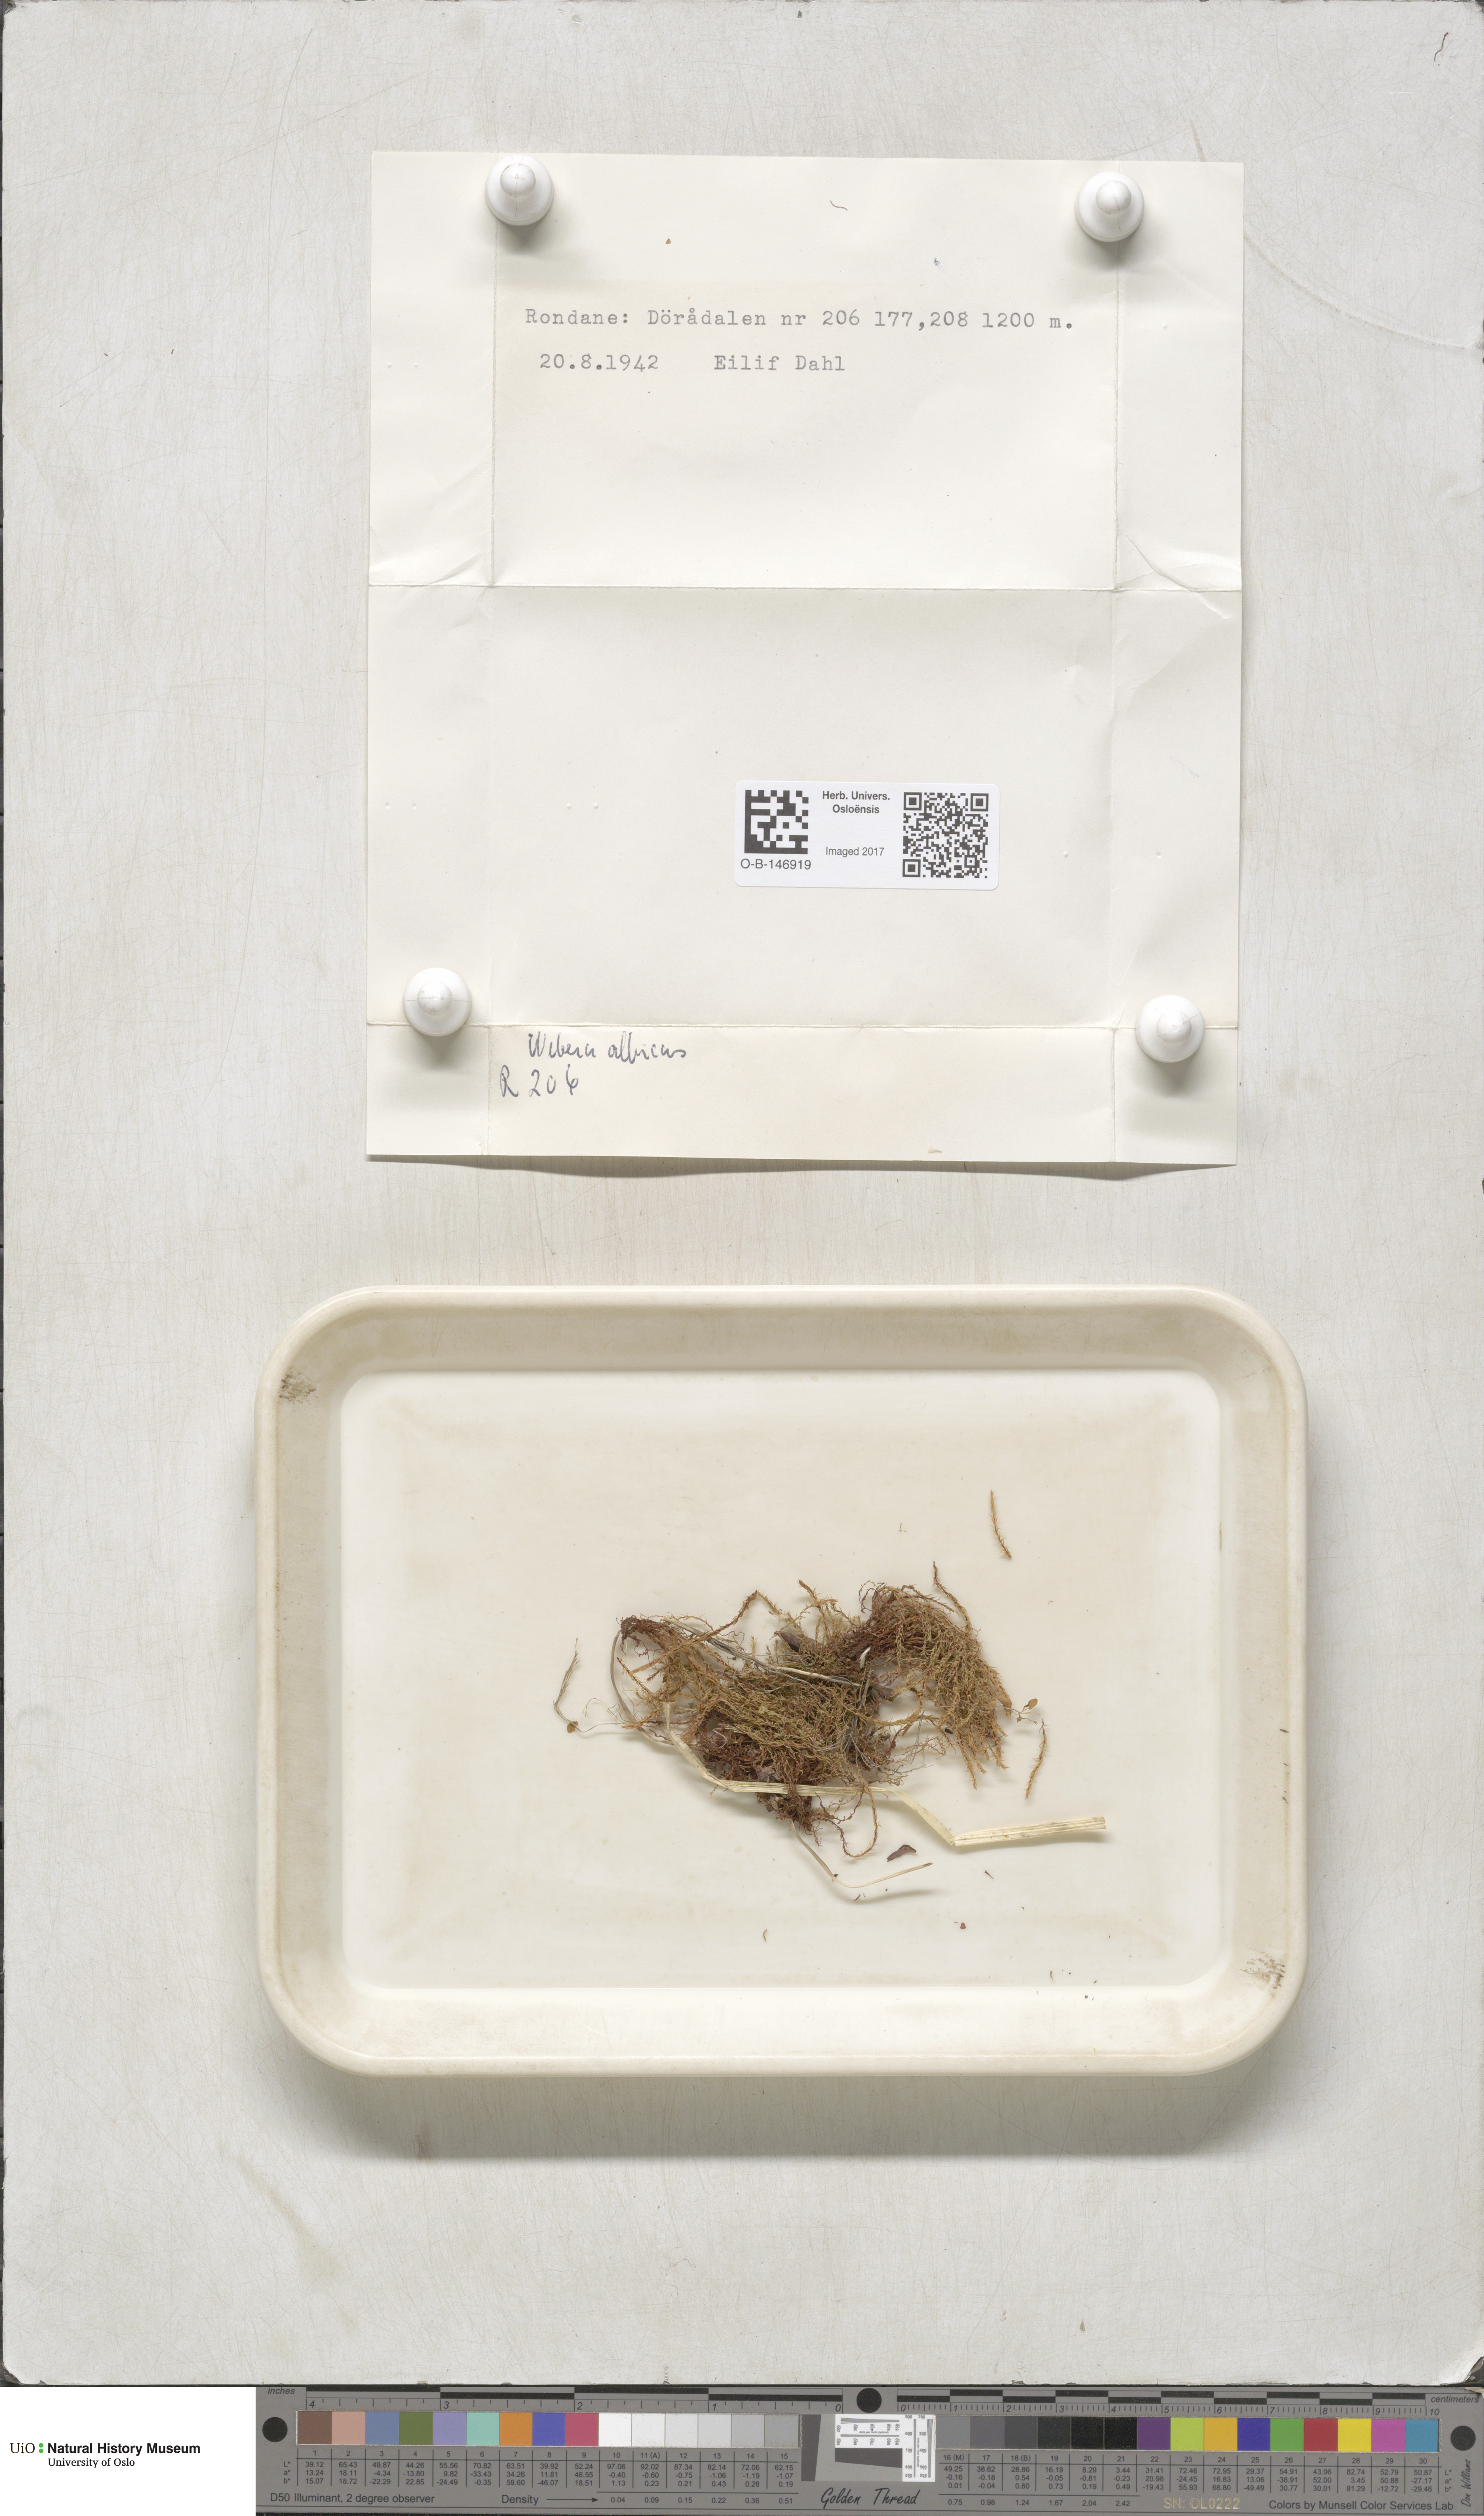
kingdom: Plantae
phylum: Bryophyta
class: Bryopsida
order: Bryales
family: Mniaceae
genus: Pohlia
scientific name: Pohlia wahlenbergii
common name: Wahlenberg's nodding moss
